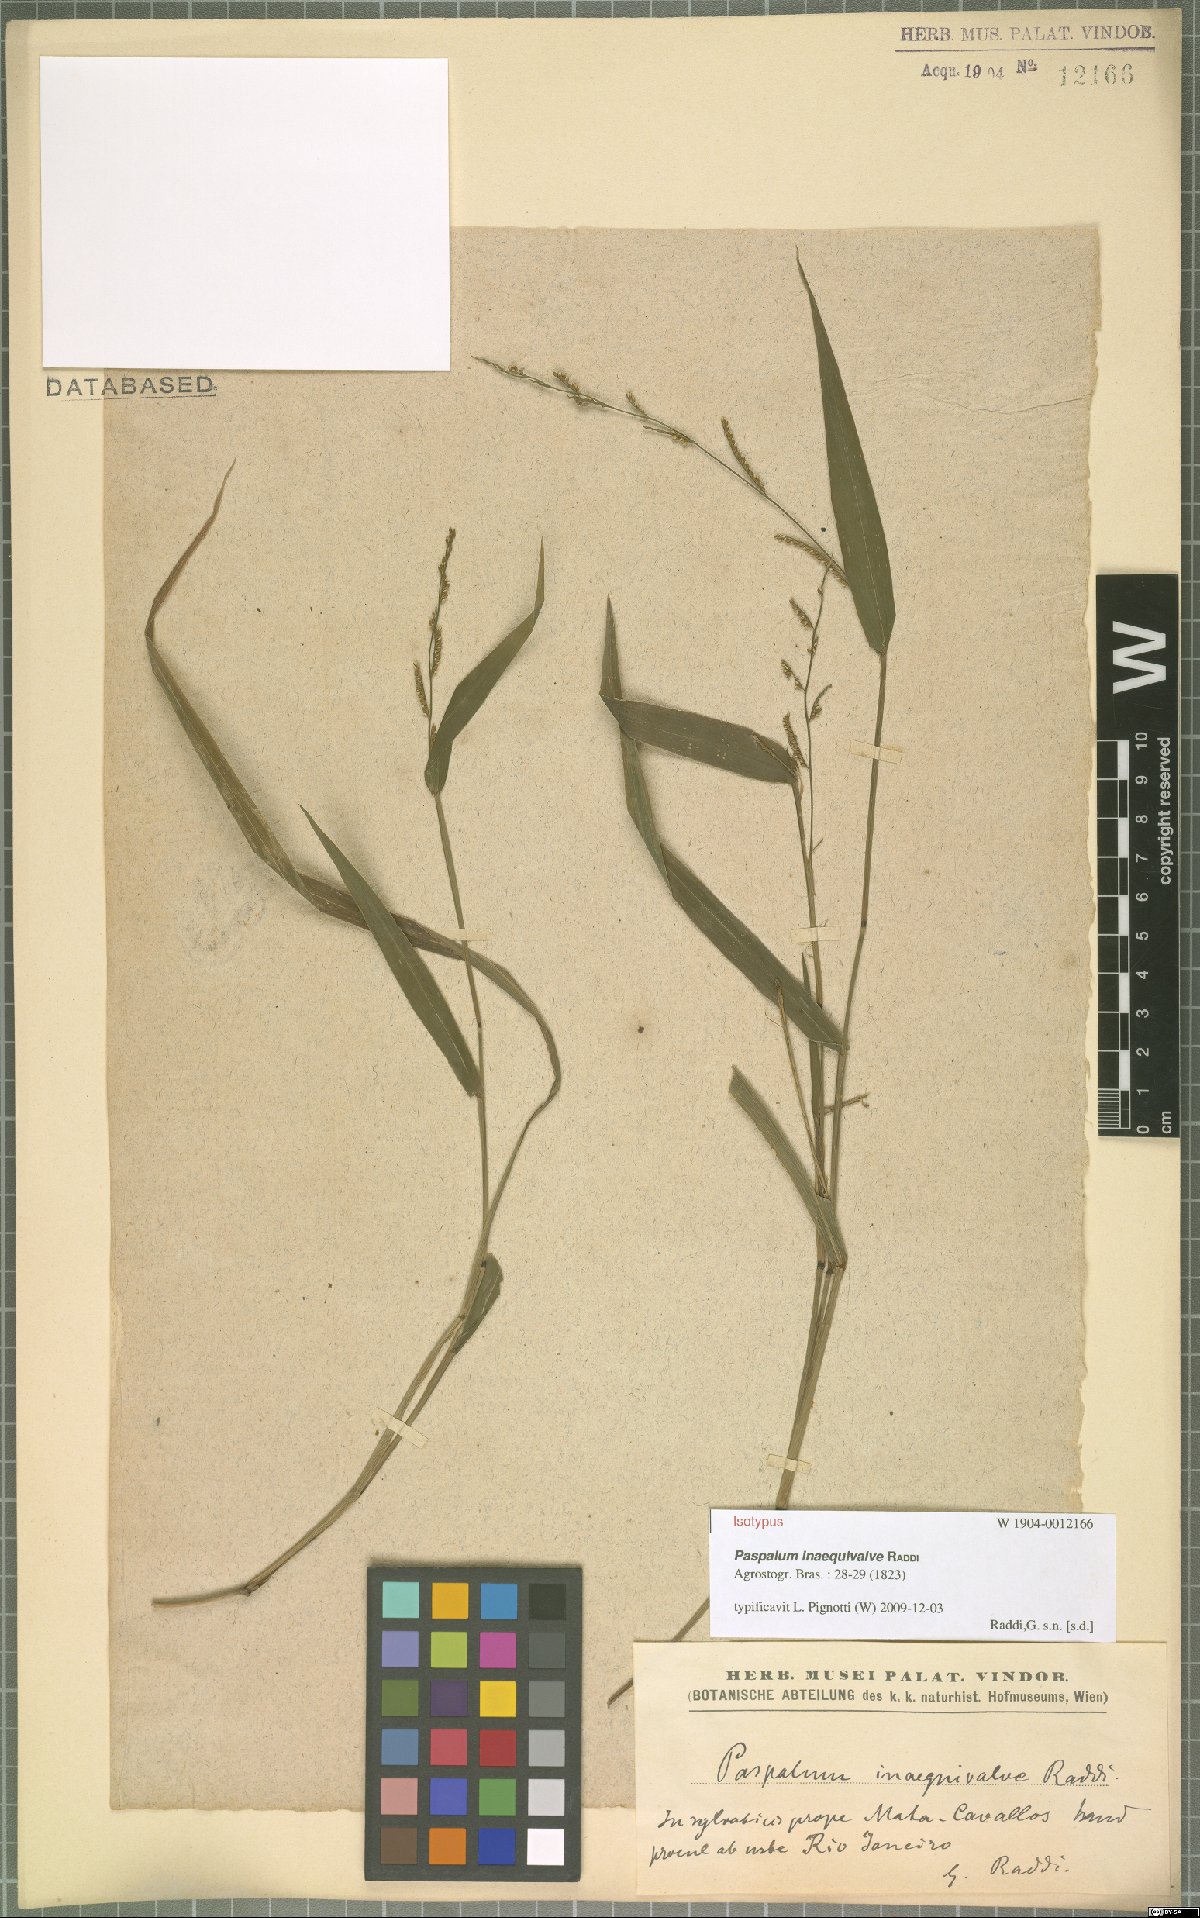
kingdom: Plantae
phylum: Tracheophyta
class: Liliopsida
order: Poales
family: Poaceae
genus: Paspalum
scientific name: Paspalum inaequivalve
